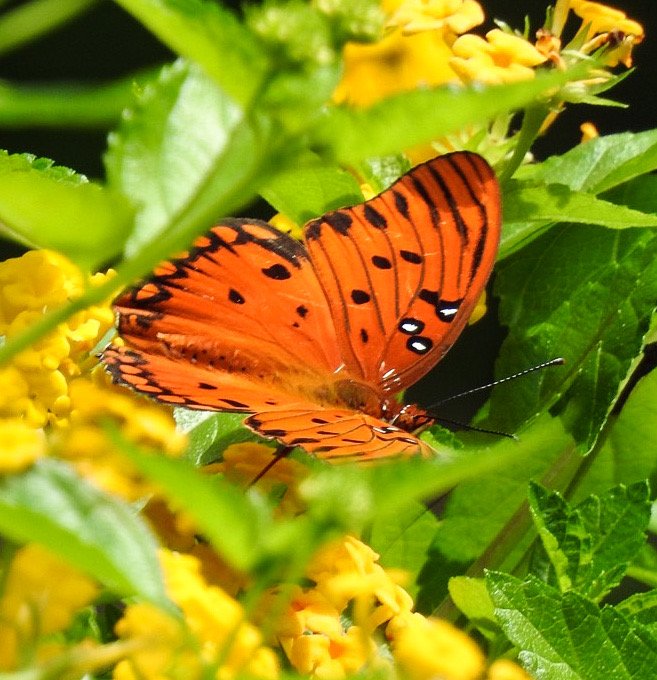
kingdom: Animalia
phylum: Arthropoda
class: Insecta
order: Lepidoptera
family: Nymphalidae
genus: Dione
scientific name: Dione vanillae
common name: Gulf Fritillary
